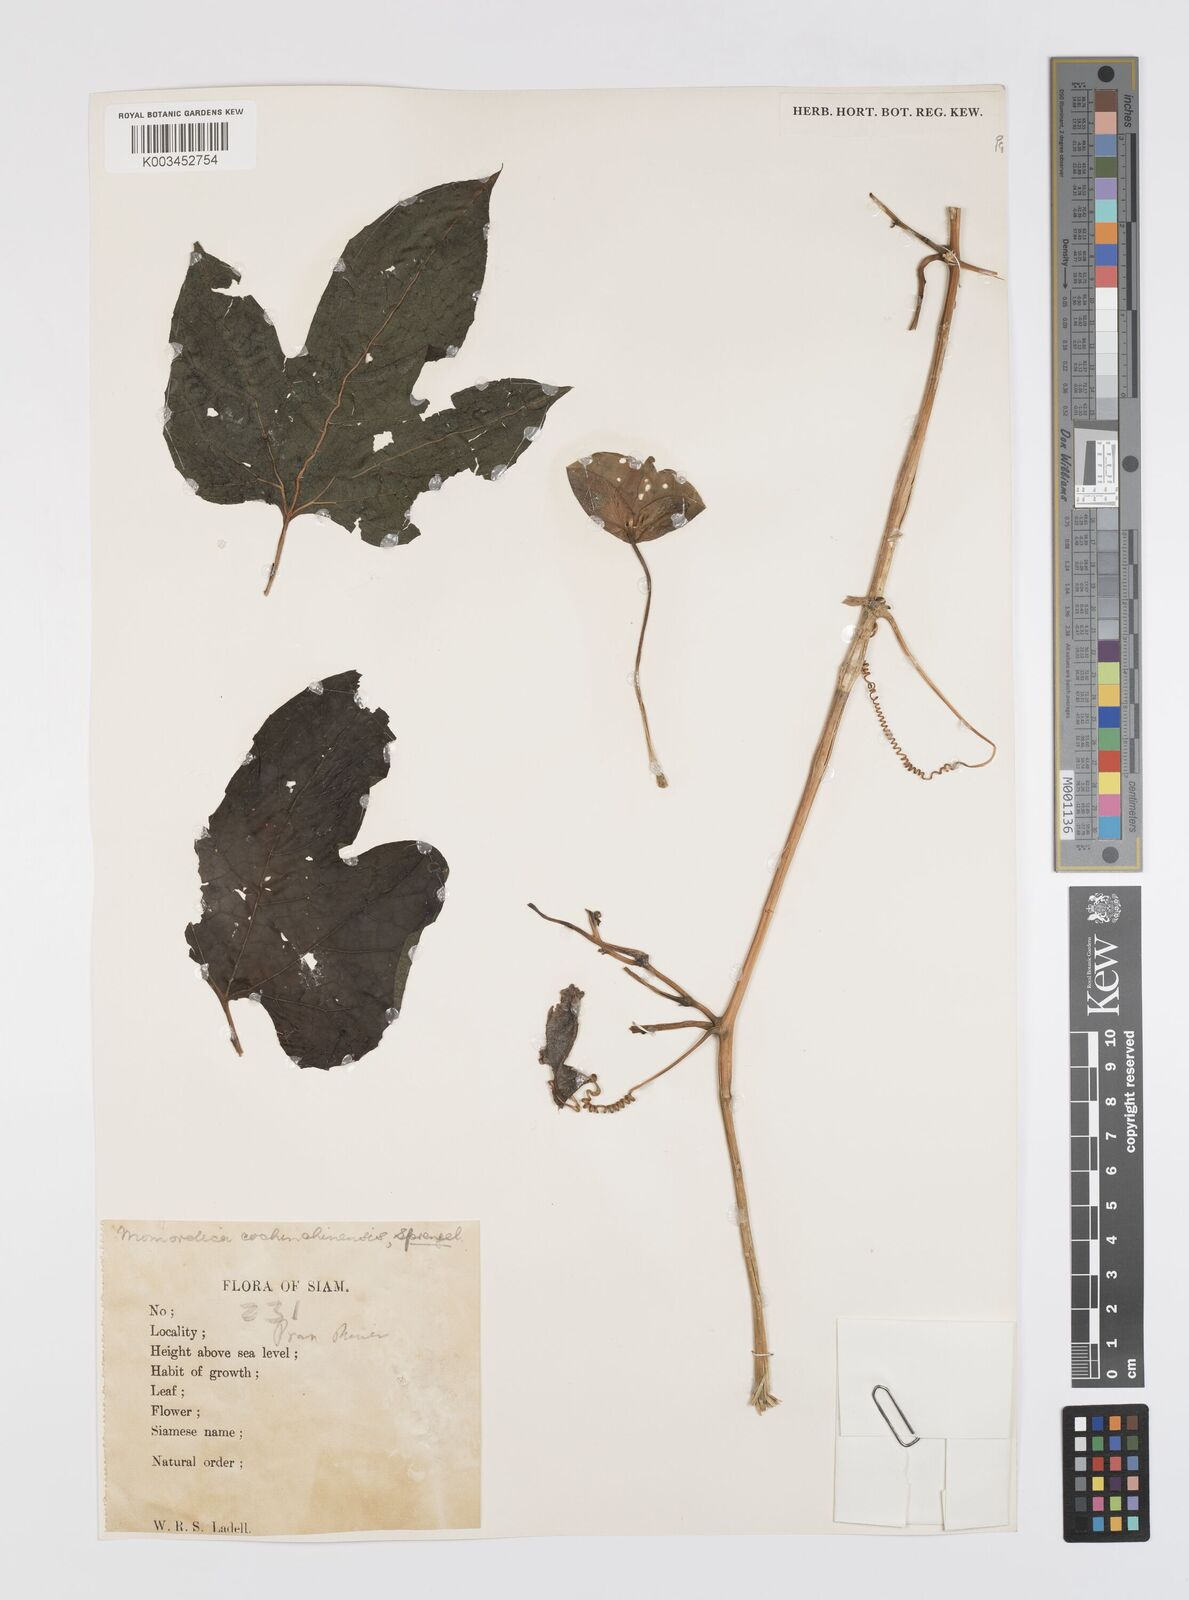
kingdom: Plantae
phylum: Tracheophyta
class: Magnoliopsida
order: Cucurbitales
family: Cucurbitaceae
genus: Momordica
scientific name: Momordica cochinchinensis
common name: Chinese bitter-cucumber
